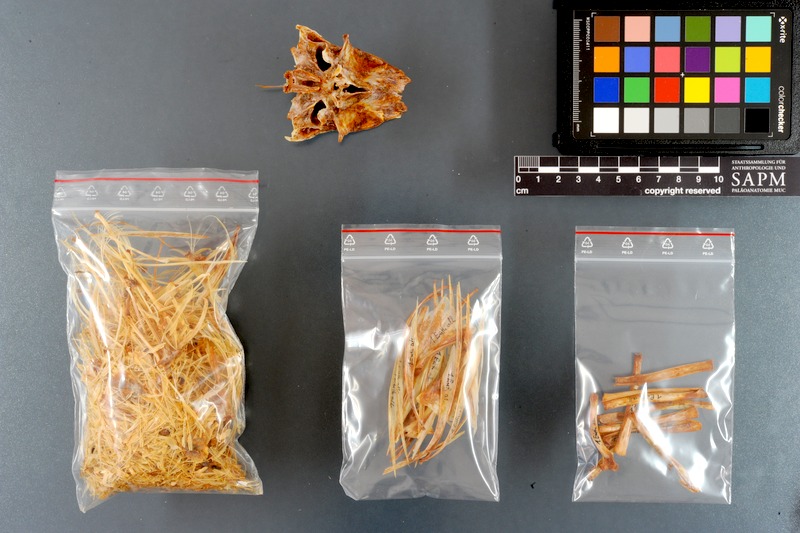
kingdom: Animalia
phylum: Chordata
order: Perciformes
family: Scombridae
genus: Euthynnus
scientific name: Euthynnus alletteratus
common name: Little tunny
